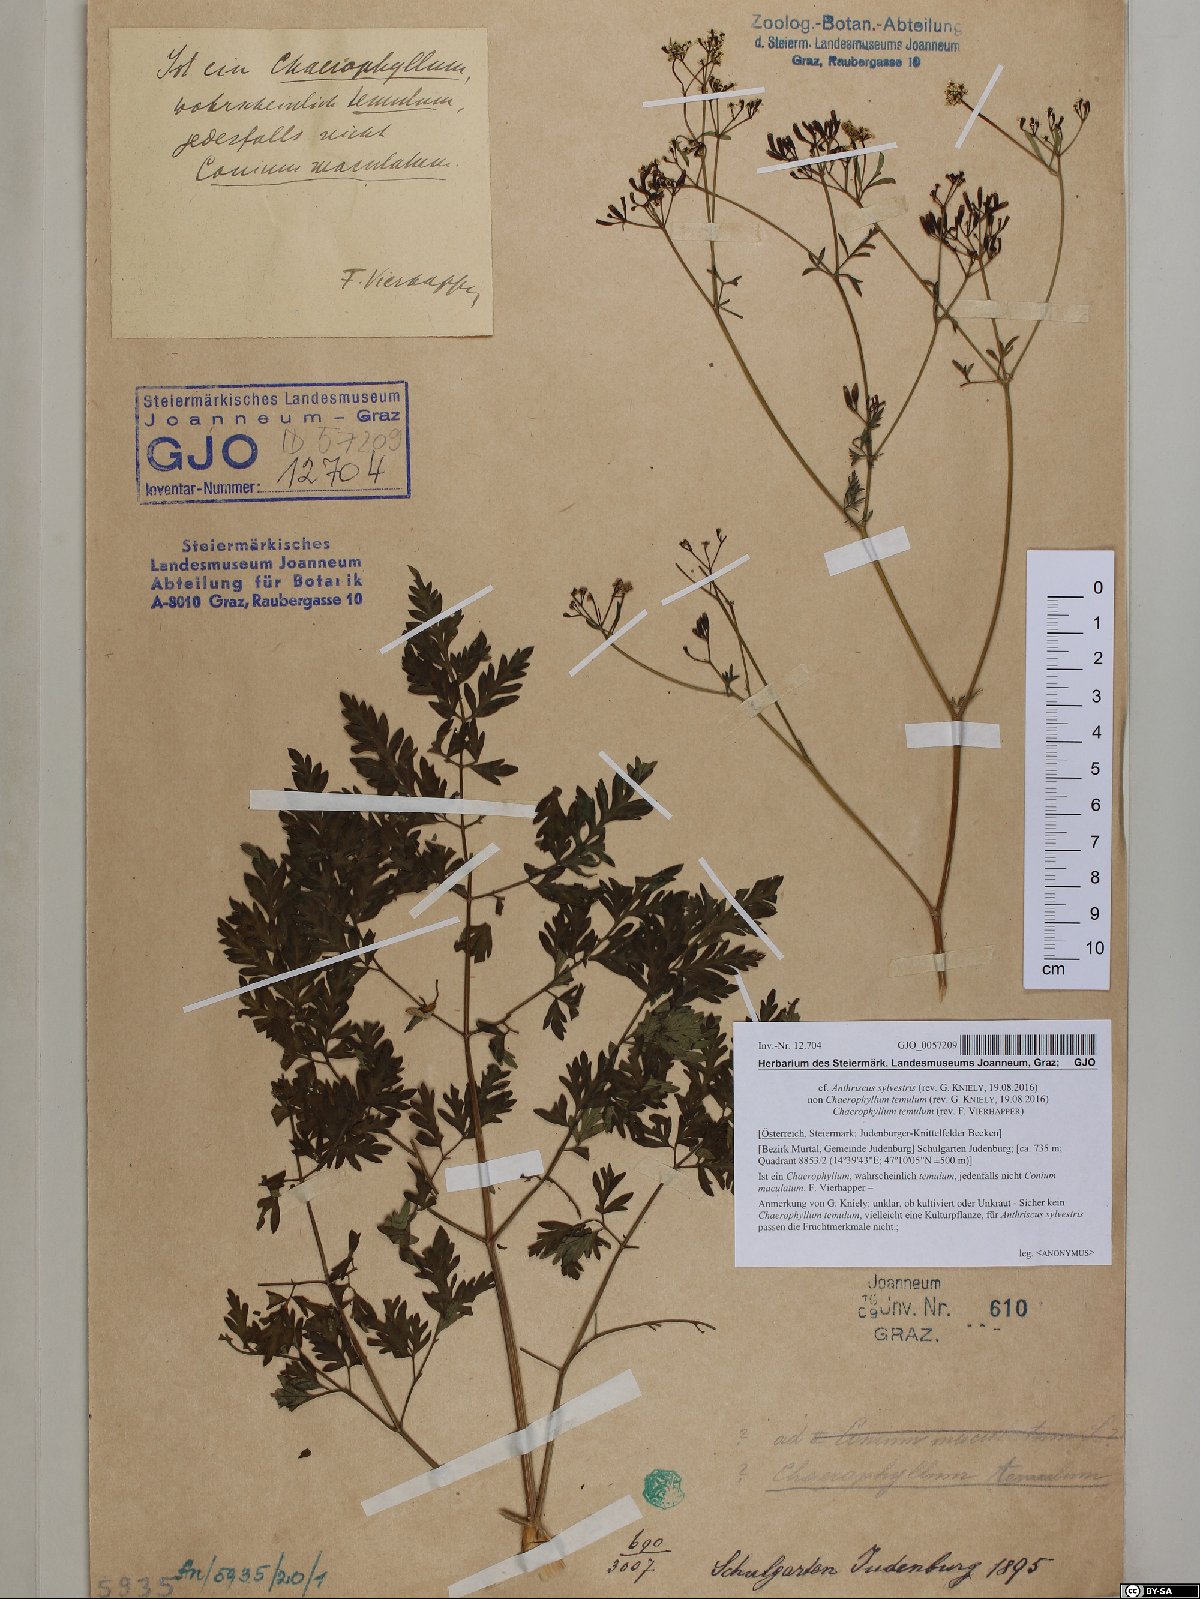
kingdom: Plantae
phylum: Tracheophyta
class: Magnoliopsida
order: Apiales
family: Apiaceae
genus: Anthriscus
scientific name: Anthriscus sylvestris
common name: Cow parsley
